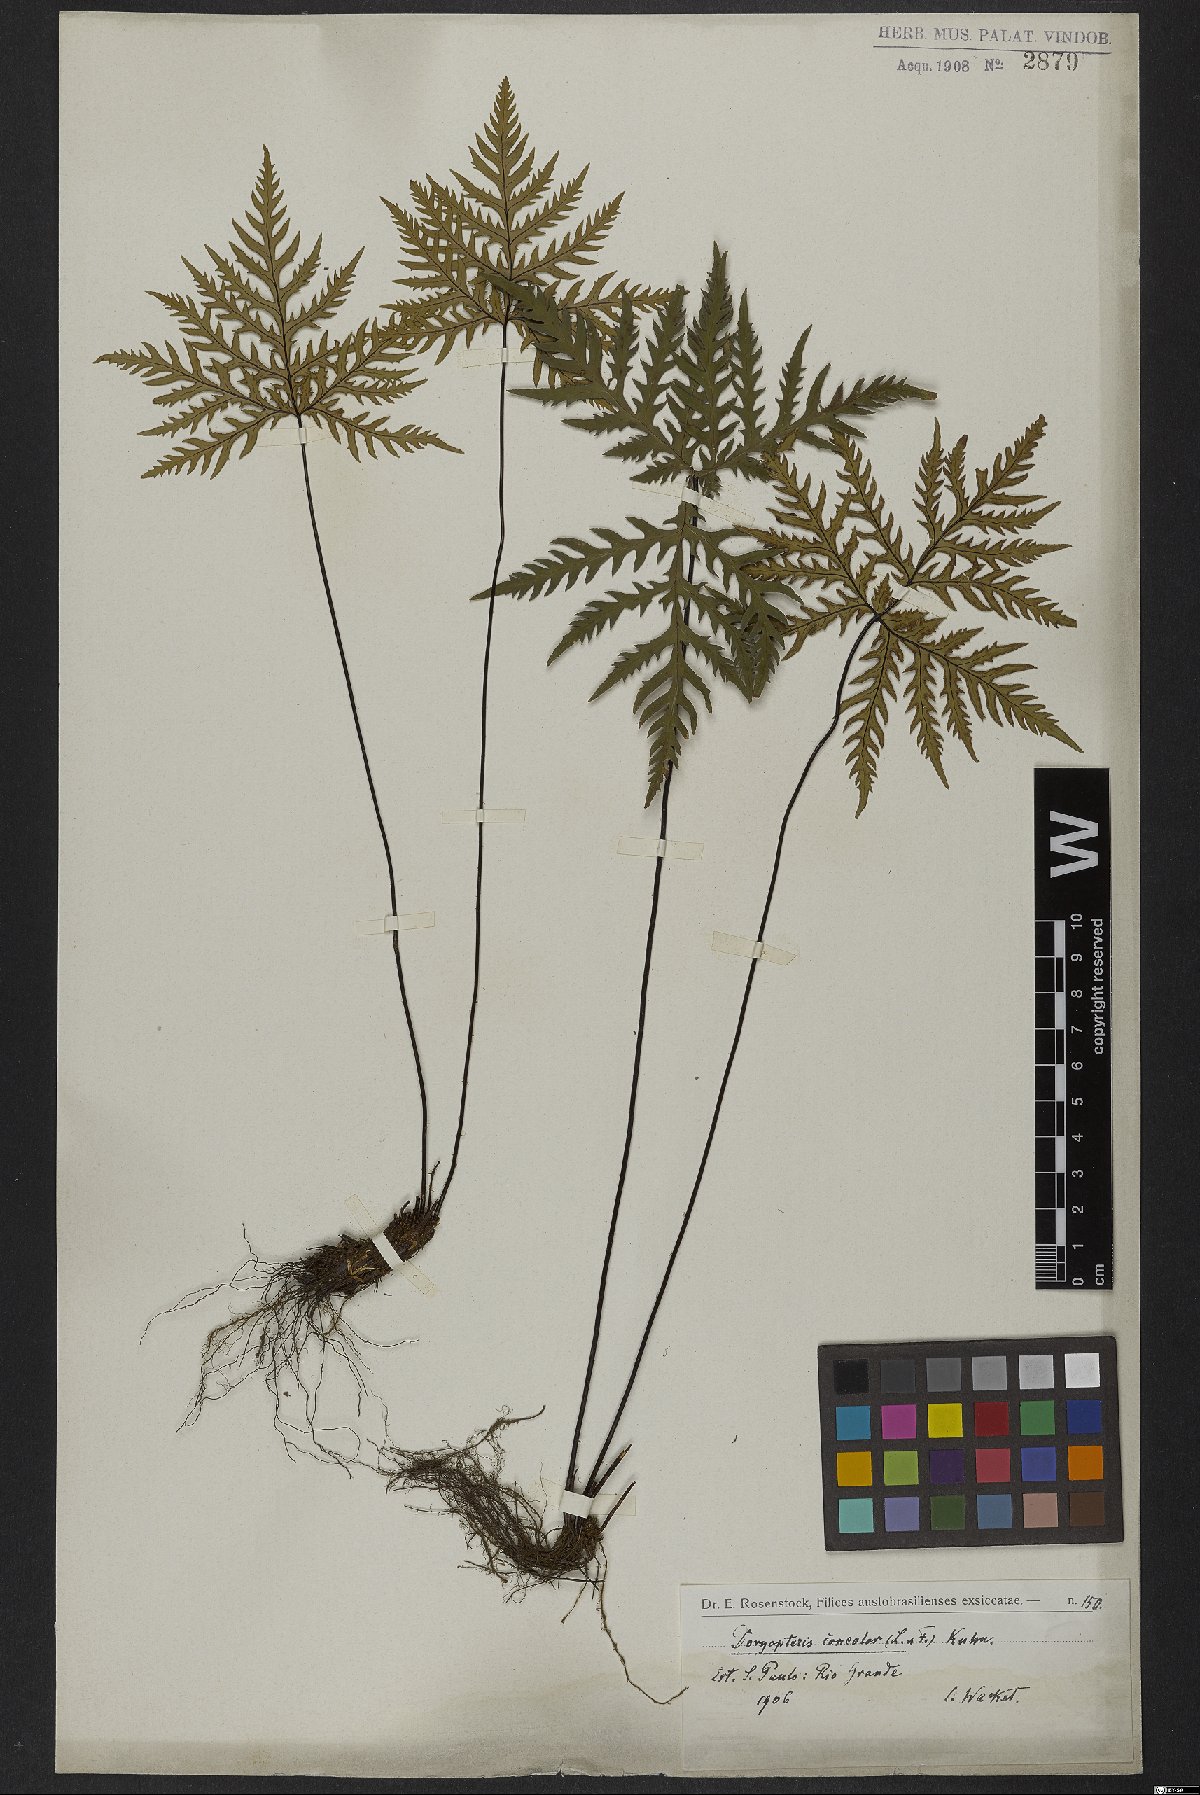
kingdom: Plantae
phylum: Tracheophyta
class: Polypodiopsida
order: Polypodiales
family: Pteridaceae
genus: Doryopteris
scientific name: Doryopteris concolor
